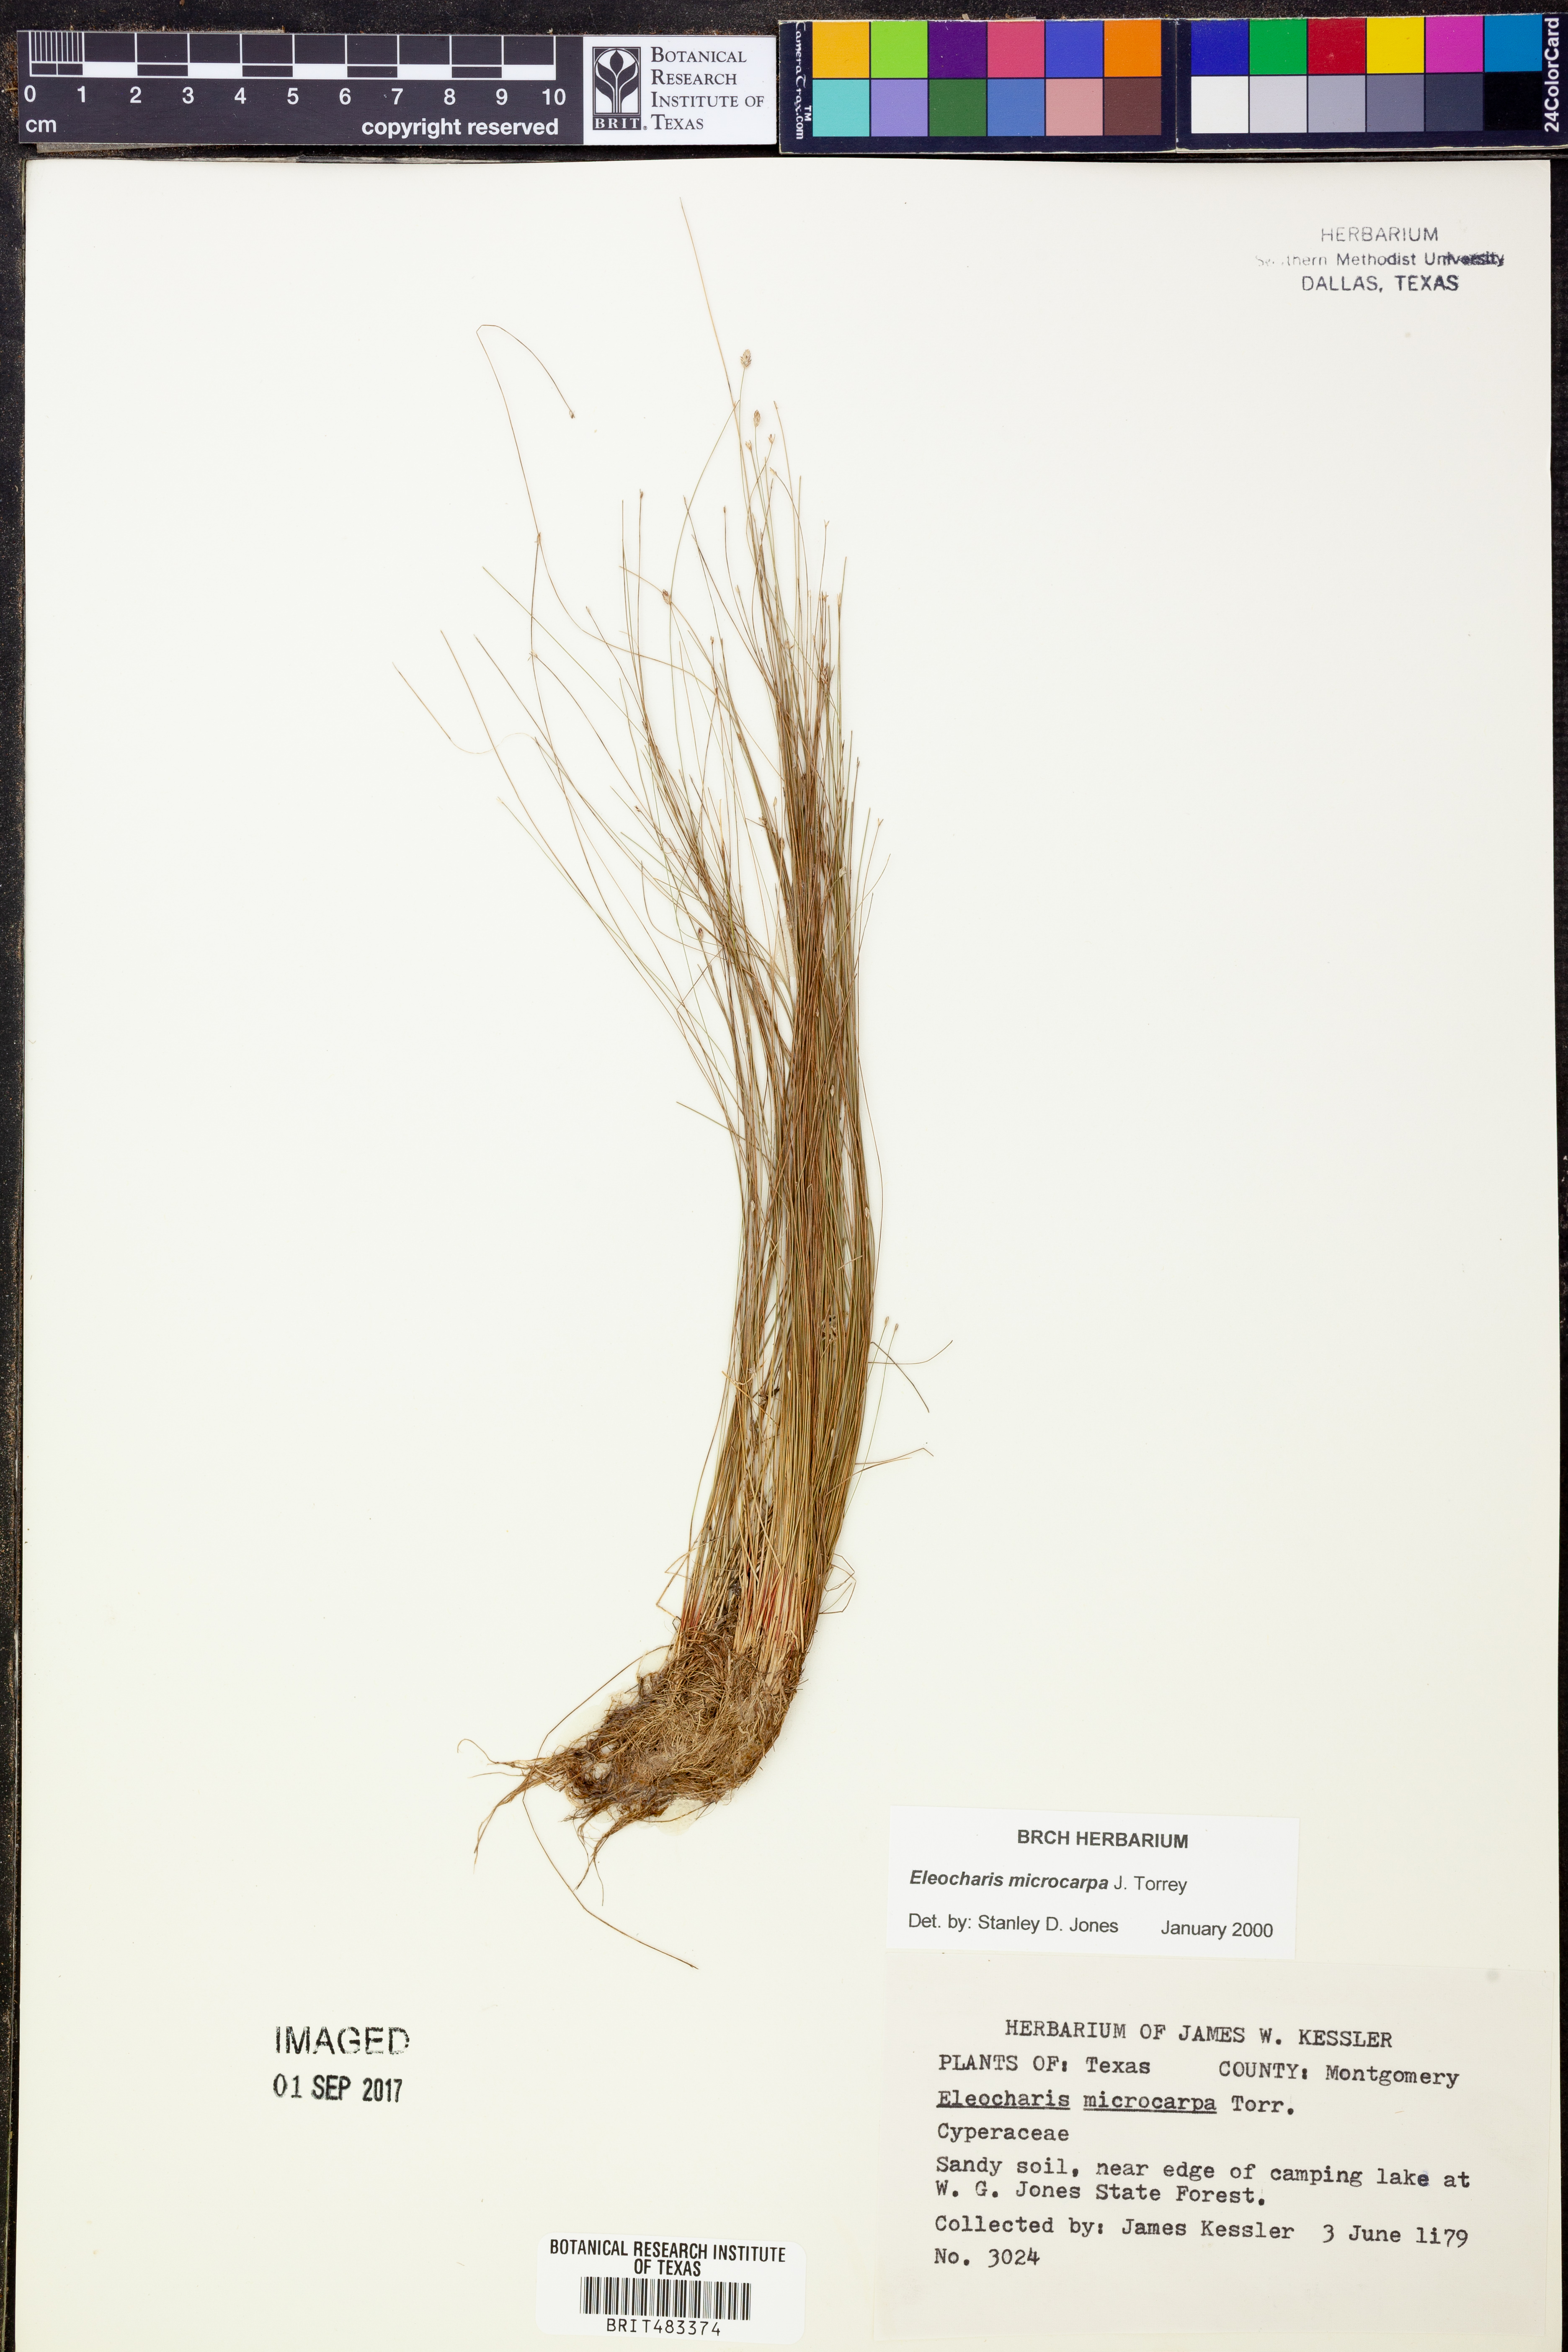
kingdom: Plantae
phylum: Tracheophyta
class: Liliopsida
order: Poales
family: Cyperaceae
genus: Eleocharis
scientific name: Eleocharis microcarpa
